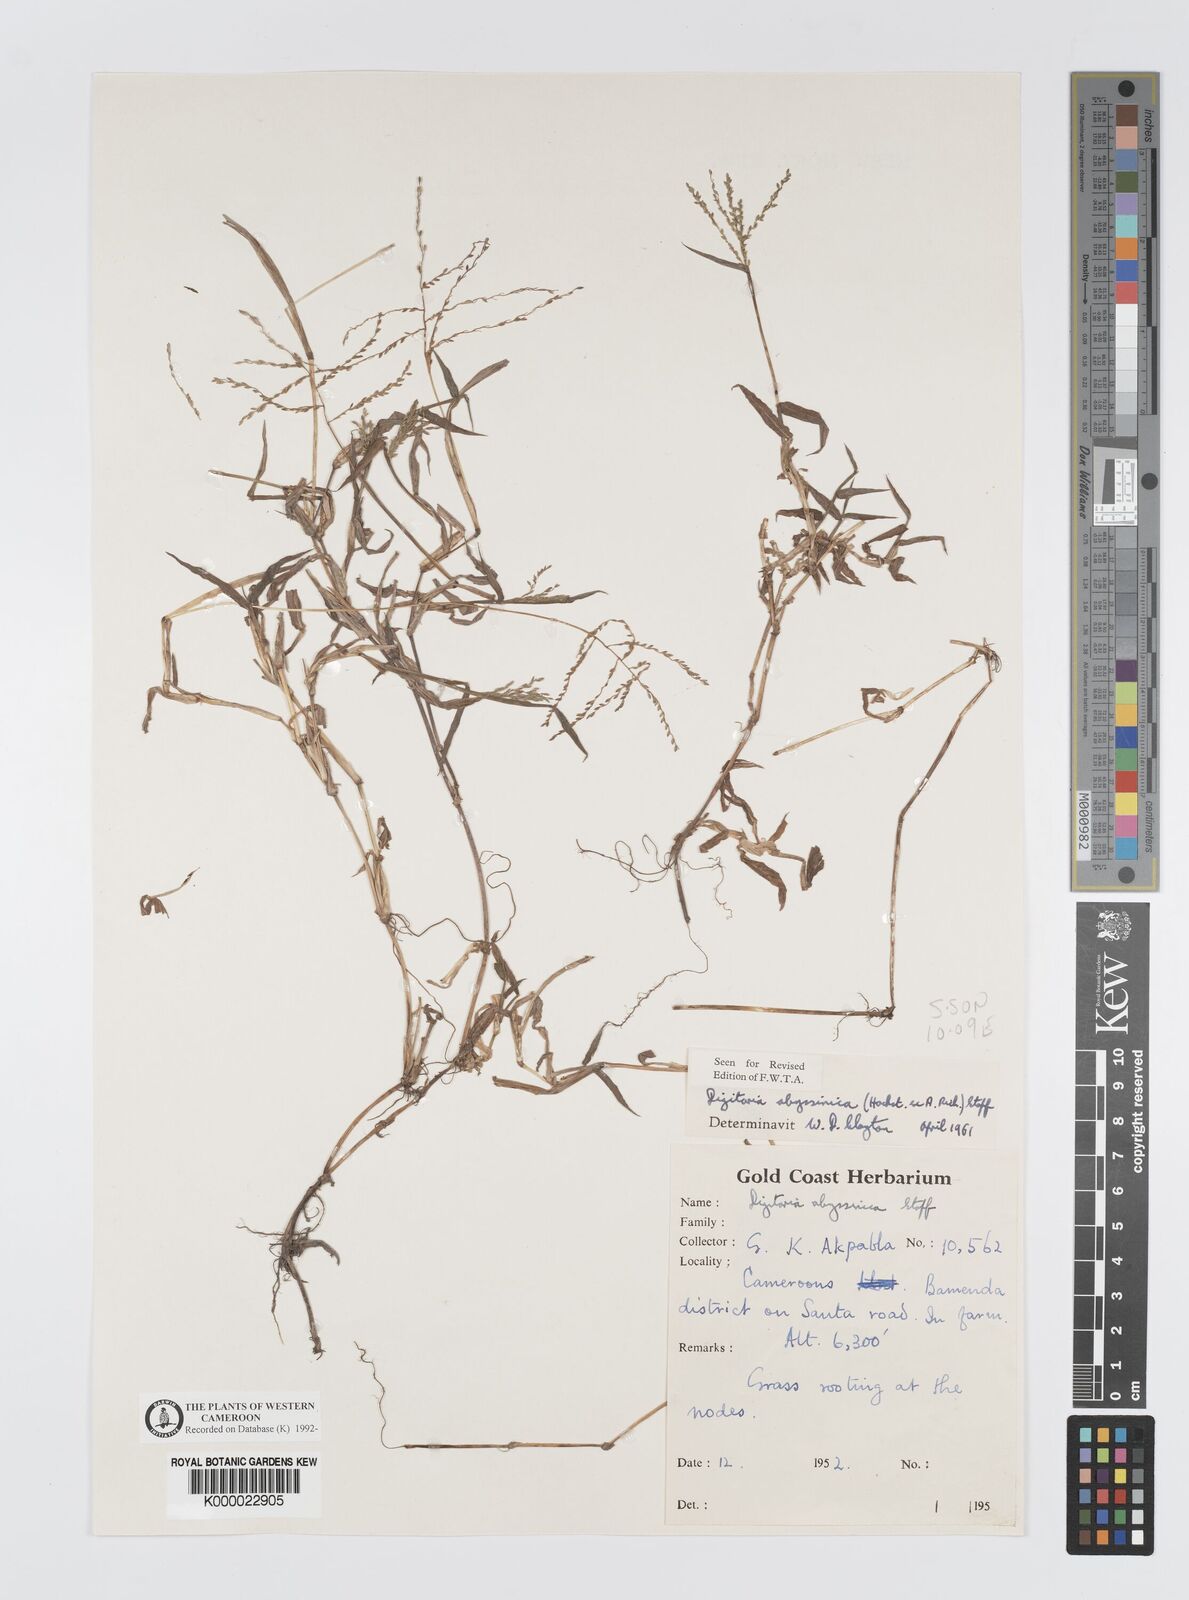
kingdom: Plantae
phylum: Tracheophyta
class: Liliopsida
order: Poales
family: Poaceae
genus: Digitaria
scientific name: Digitaria abyssinica
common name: African couchgrass
